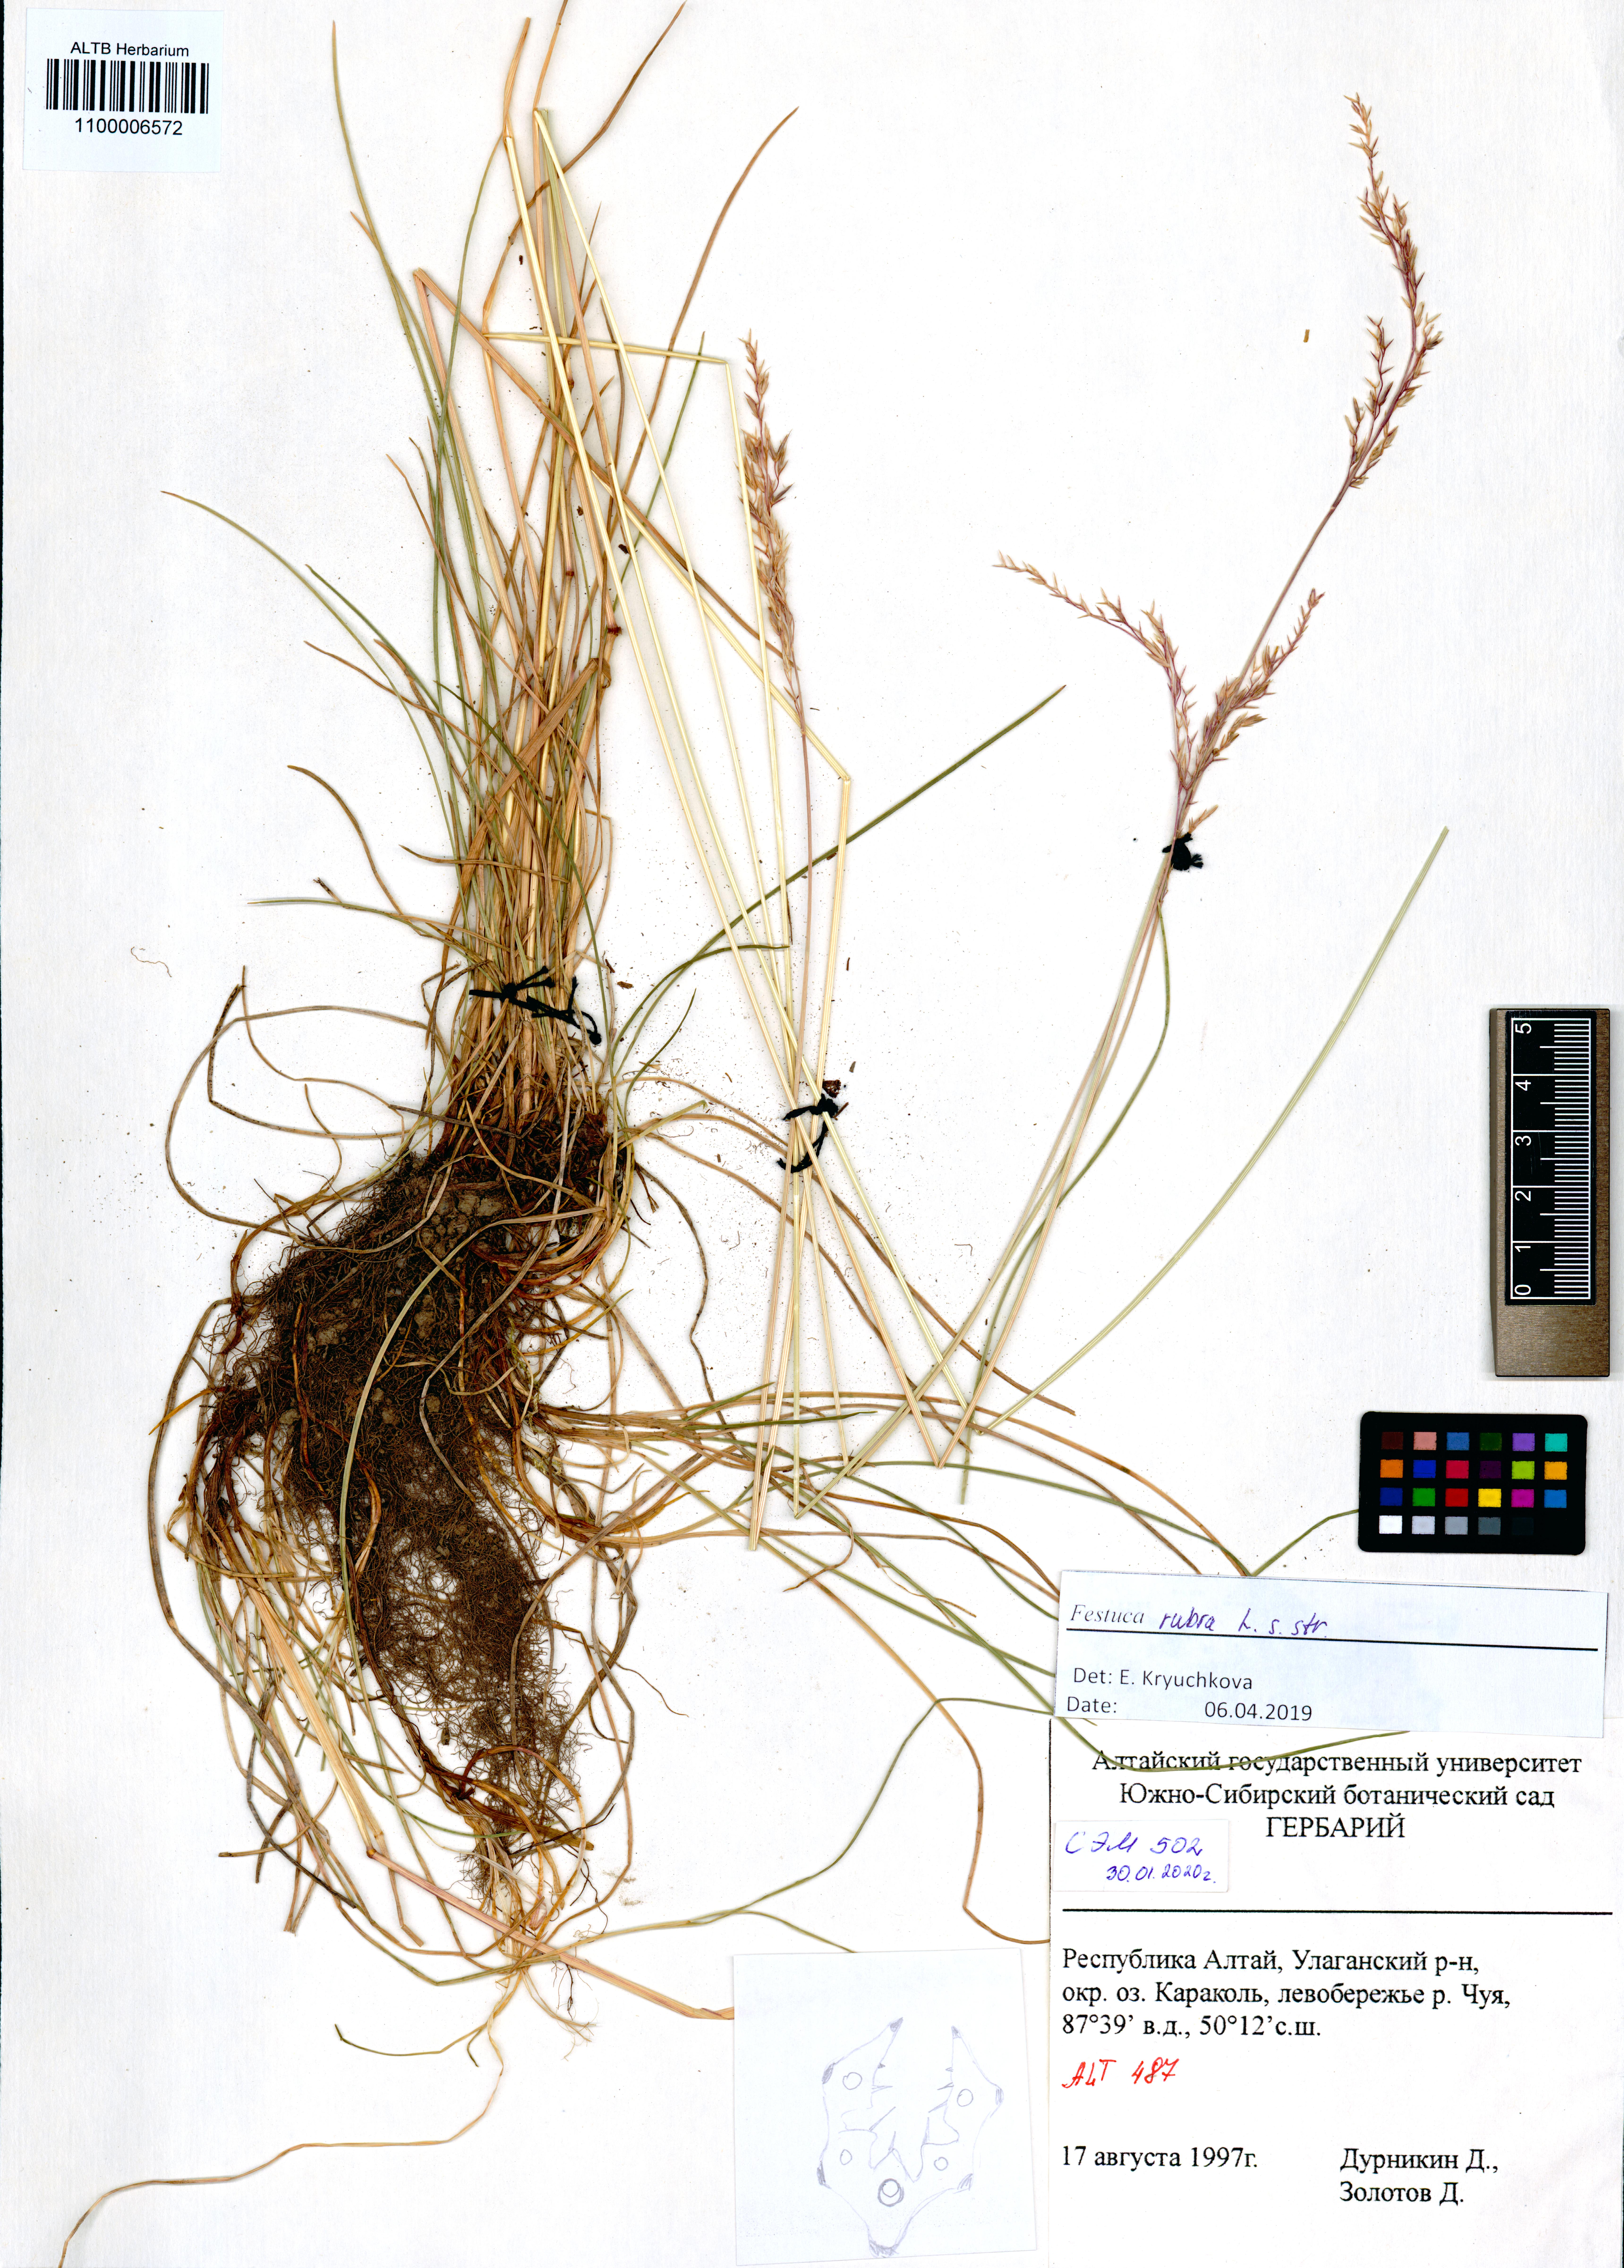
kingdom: Plantae
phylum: Tracheophyta
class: Liliopsida
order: Poales
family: Poaceae
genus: Festuca
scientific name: Festuca rubra
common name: Red fescue
